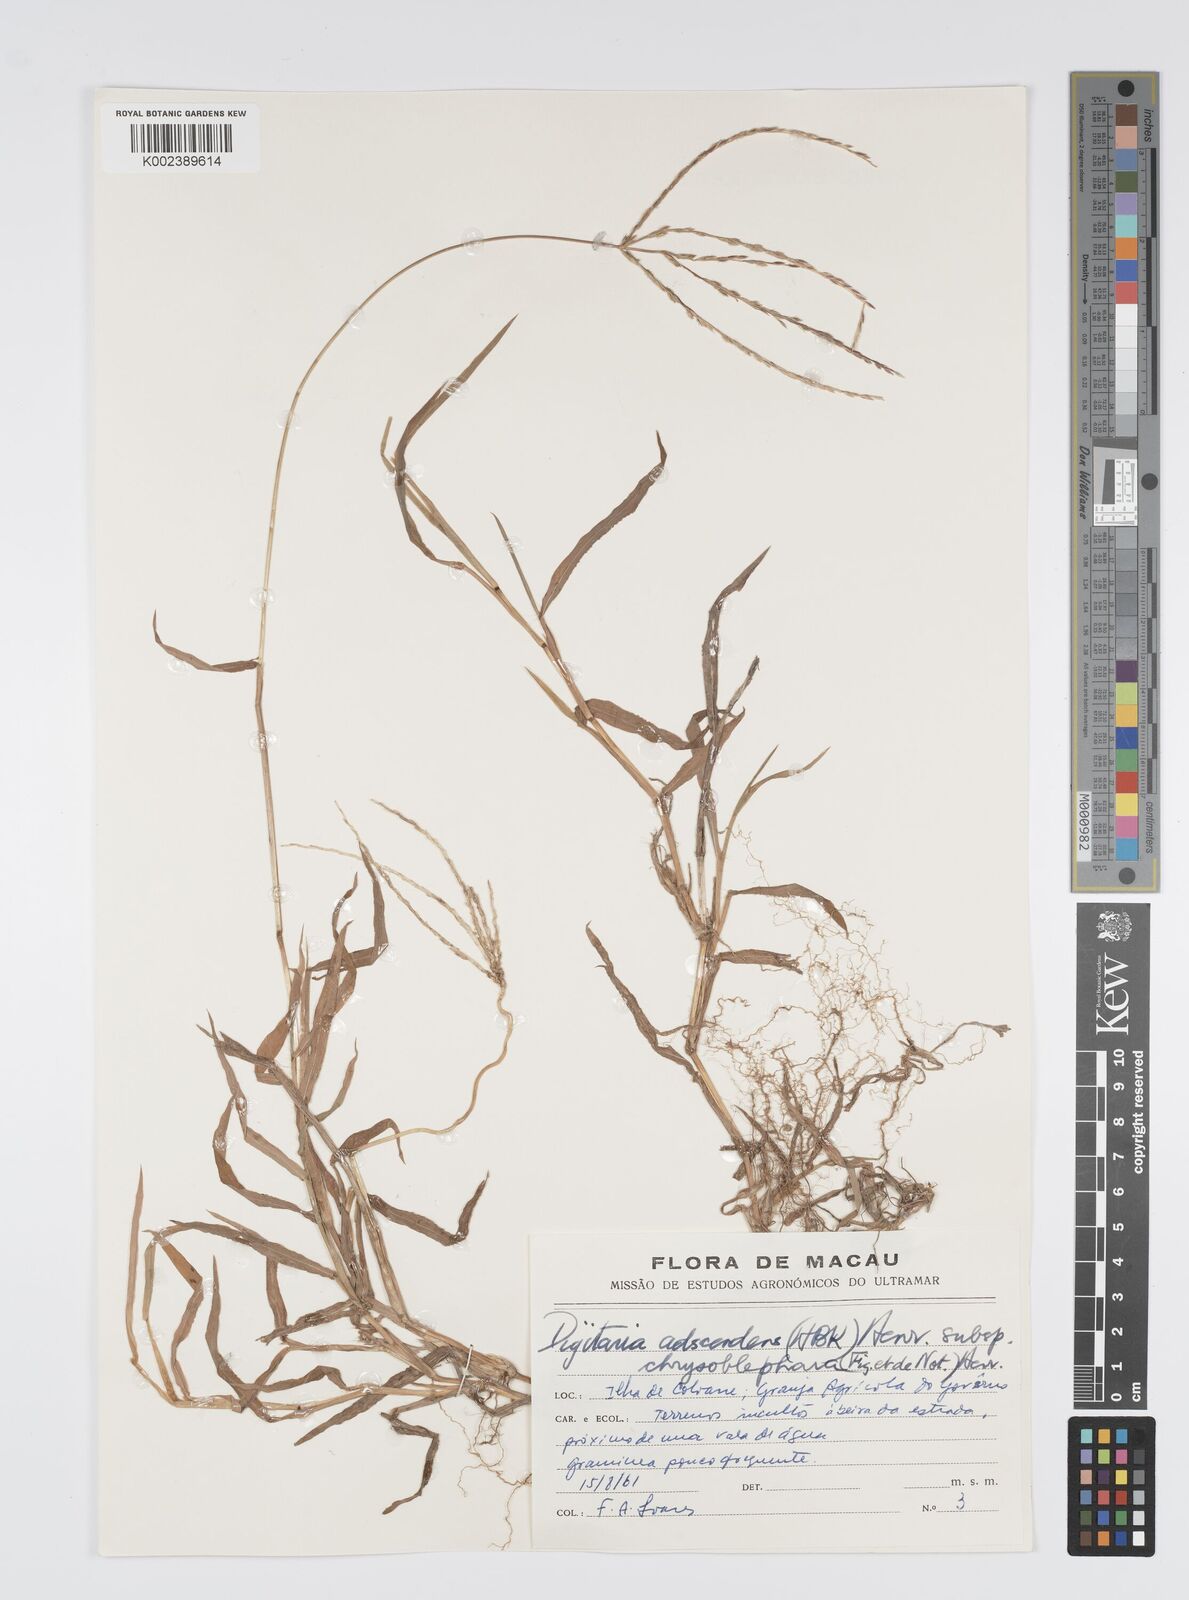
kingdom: Plantae
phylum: Tracheophyta
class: Liliopsida
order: Poales
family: Poaceae
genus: Digitaria
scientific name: Digitaria ciliaris
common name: Tropical finger-grass
